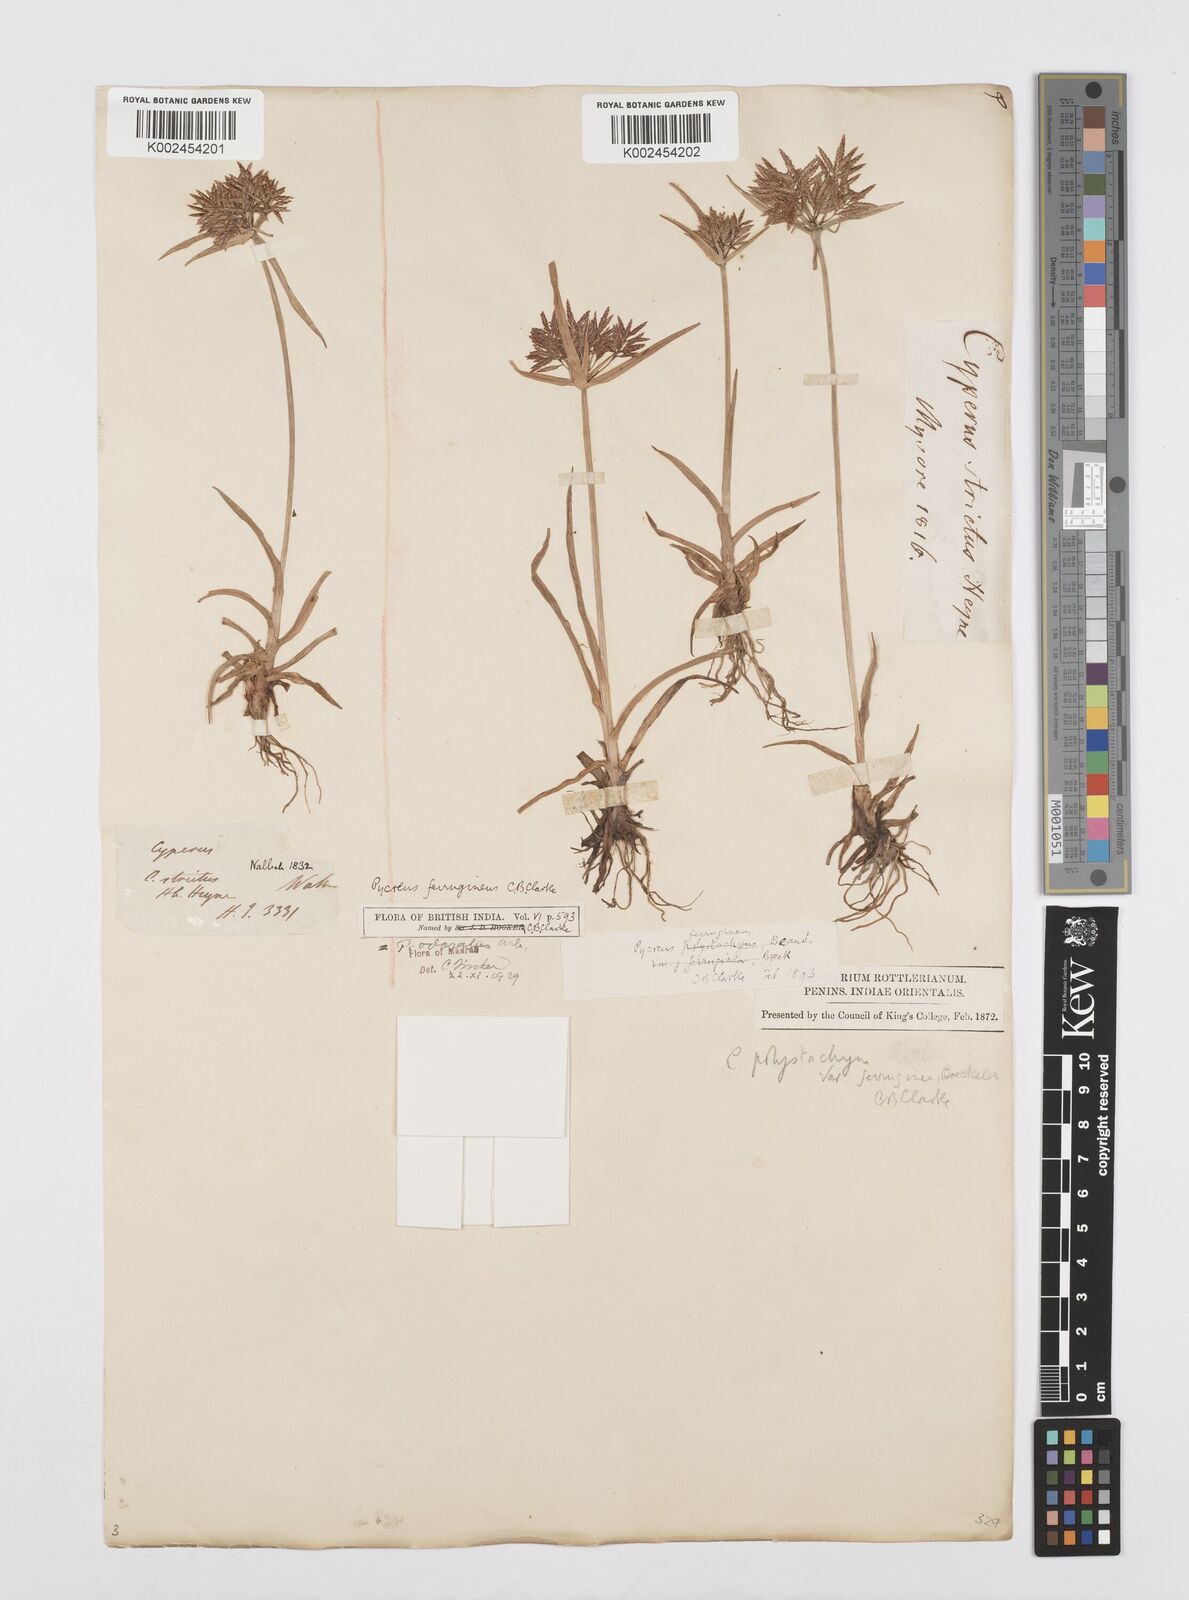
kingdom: Plantae
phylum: Tracheophyta
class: Liliopsida
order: Poales
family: Cyperaceae
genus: Cyperus
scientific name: Cyperus polystachyos
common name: Bunchy flat sedge
